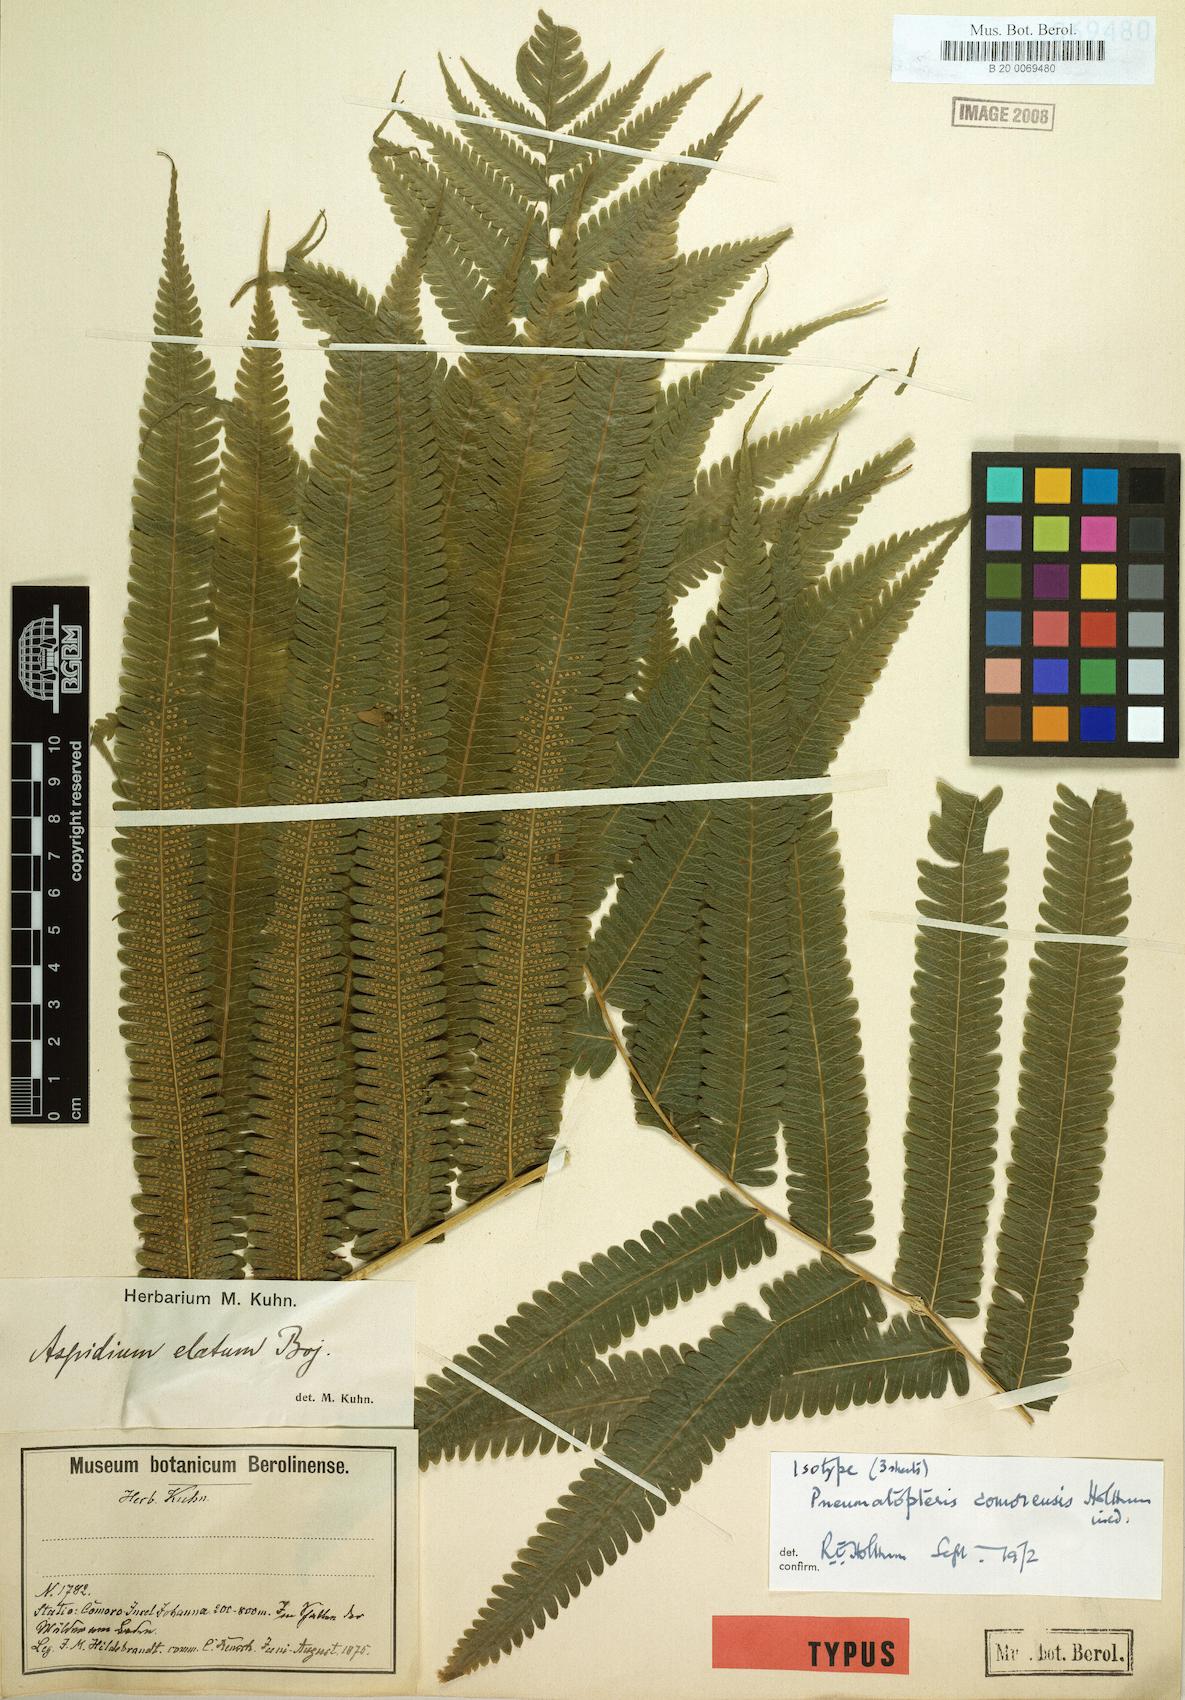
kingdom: Plantae
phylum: Tracheophyta
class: Polypodiopsida
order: Polypodiales
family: Thelypteridaceae
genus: Pneumatopteris
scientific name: Pneumatopteris comorensis
